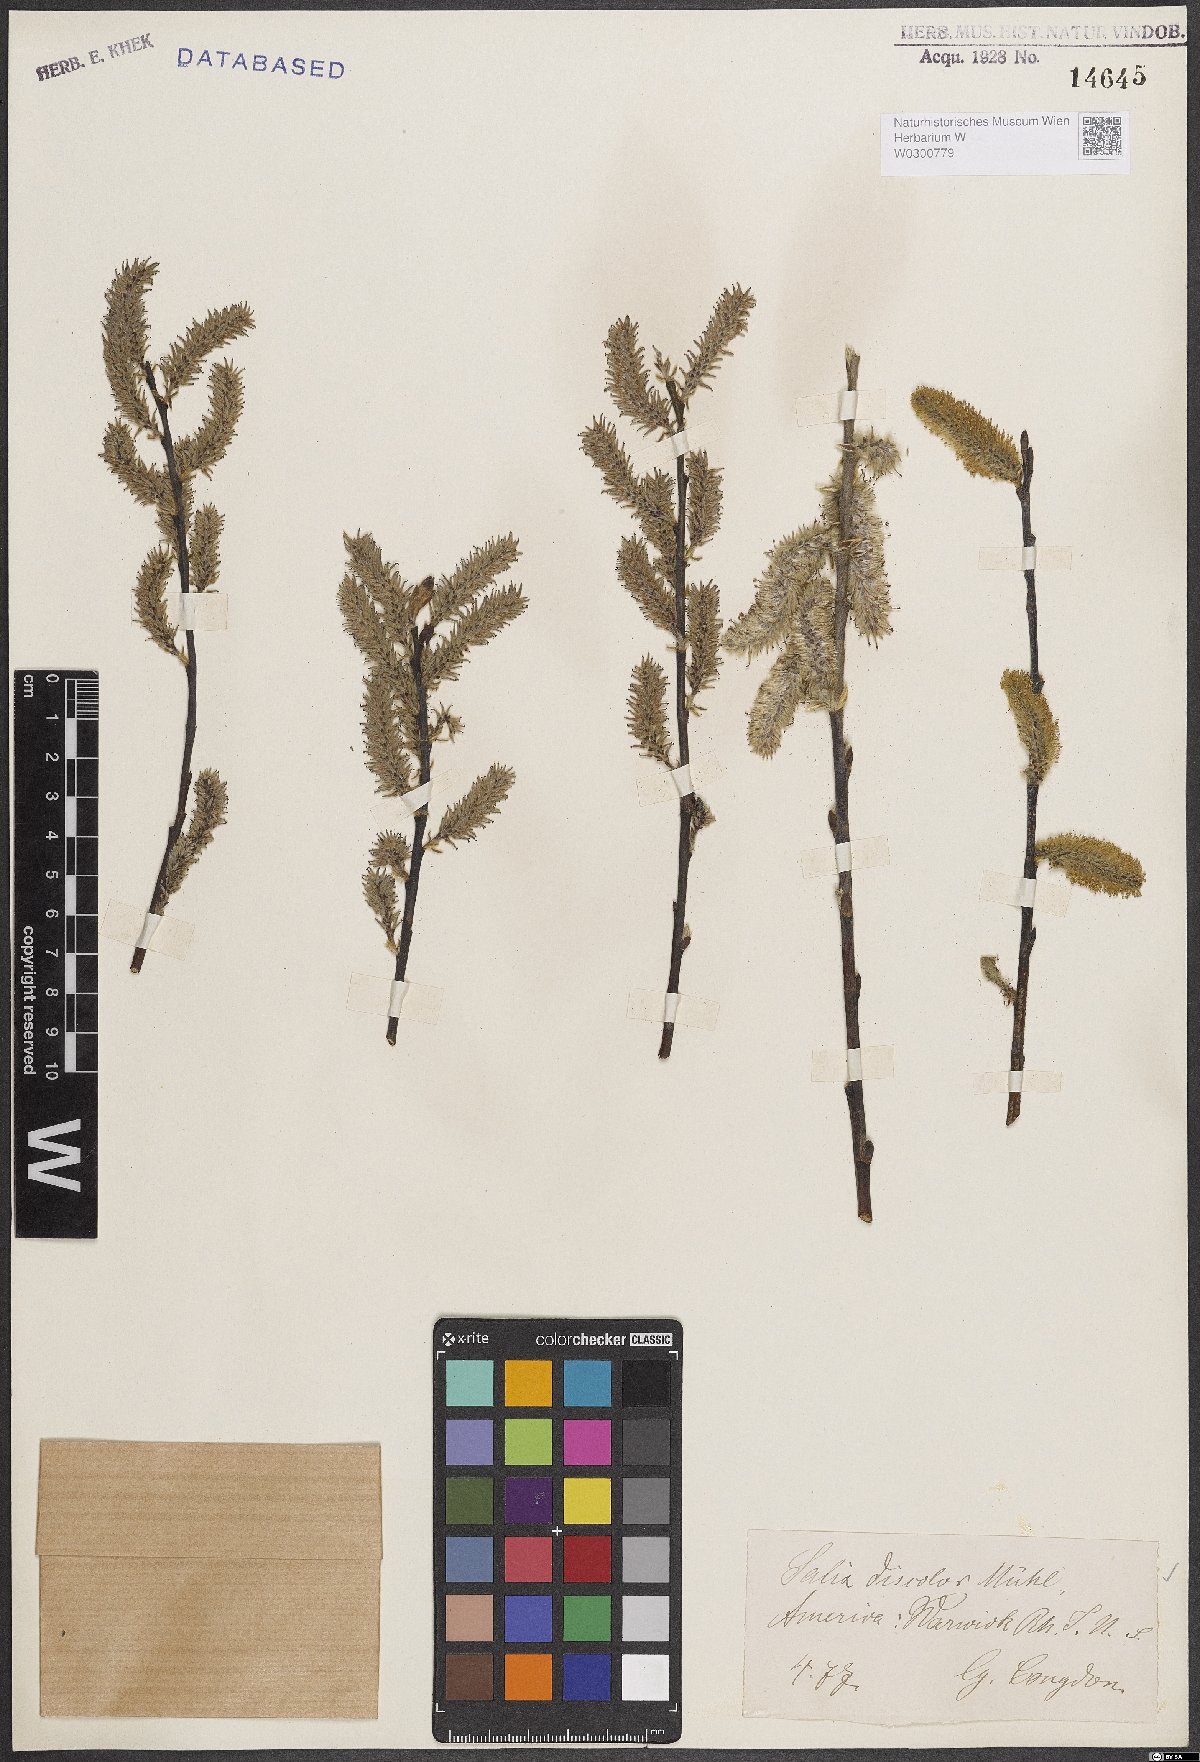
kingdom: Plantae
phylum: Tracheophyta
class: Magnoliopsida
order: Malpighiales
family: Salicaceae
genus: Salix
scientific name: Salix discolor
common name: Glaucous willow
